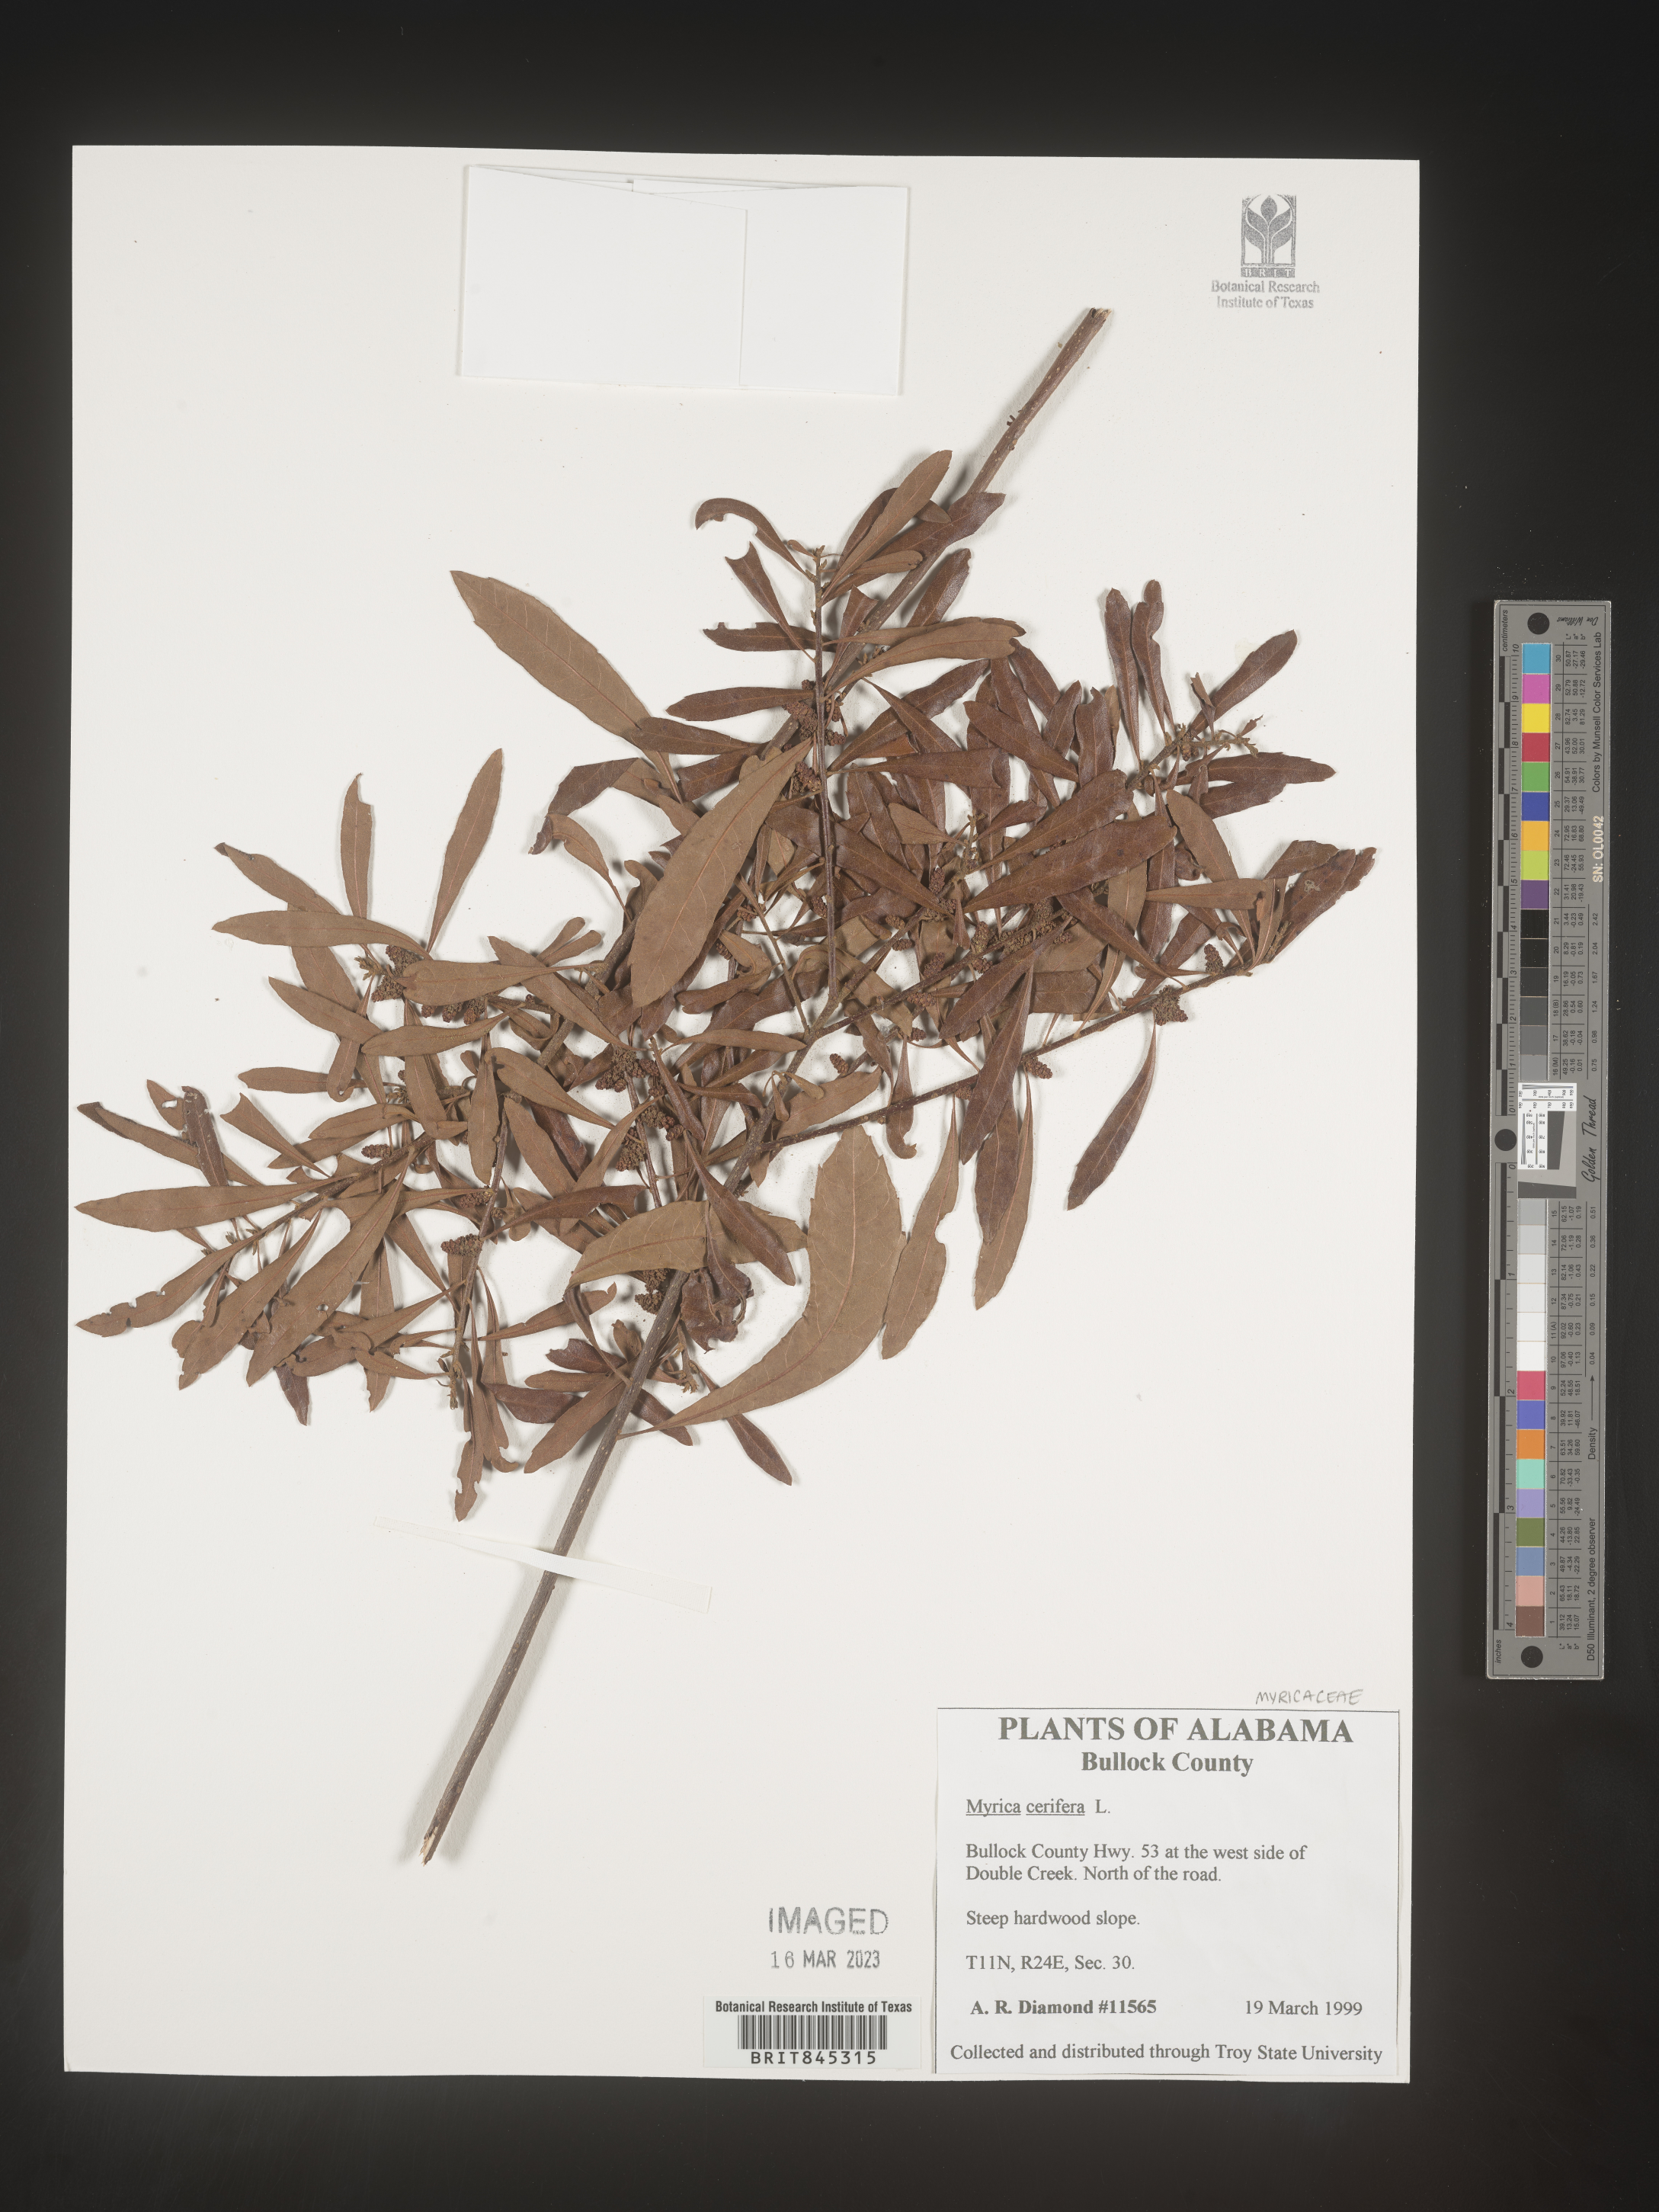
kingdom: Plantae
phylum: Tracheophyta
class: Magnoliopsida
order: Fagales
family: Myricaceae
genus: Morella
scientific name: Morella cerifera
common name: Wax myrtle
